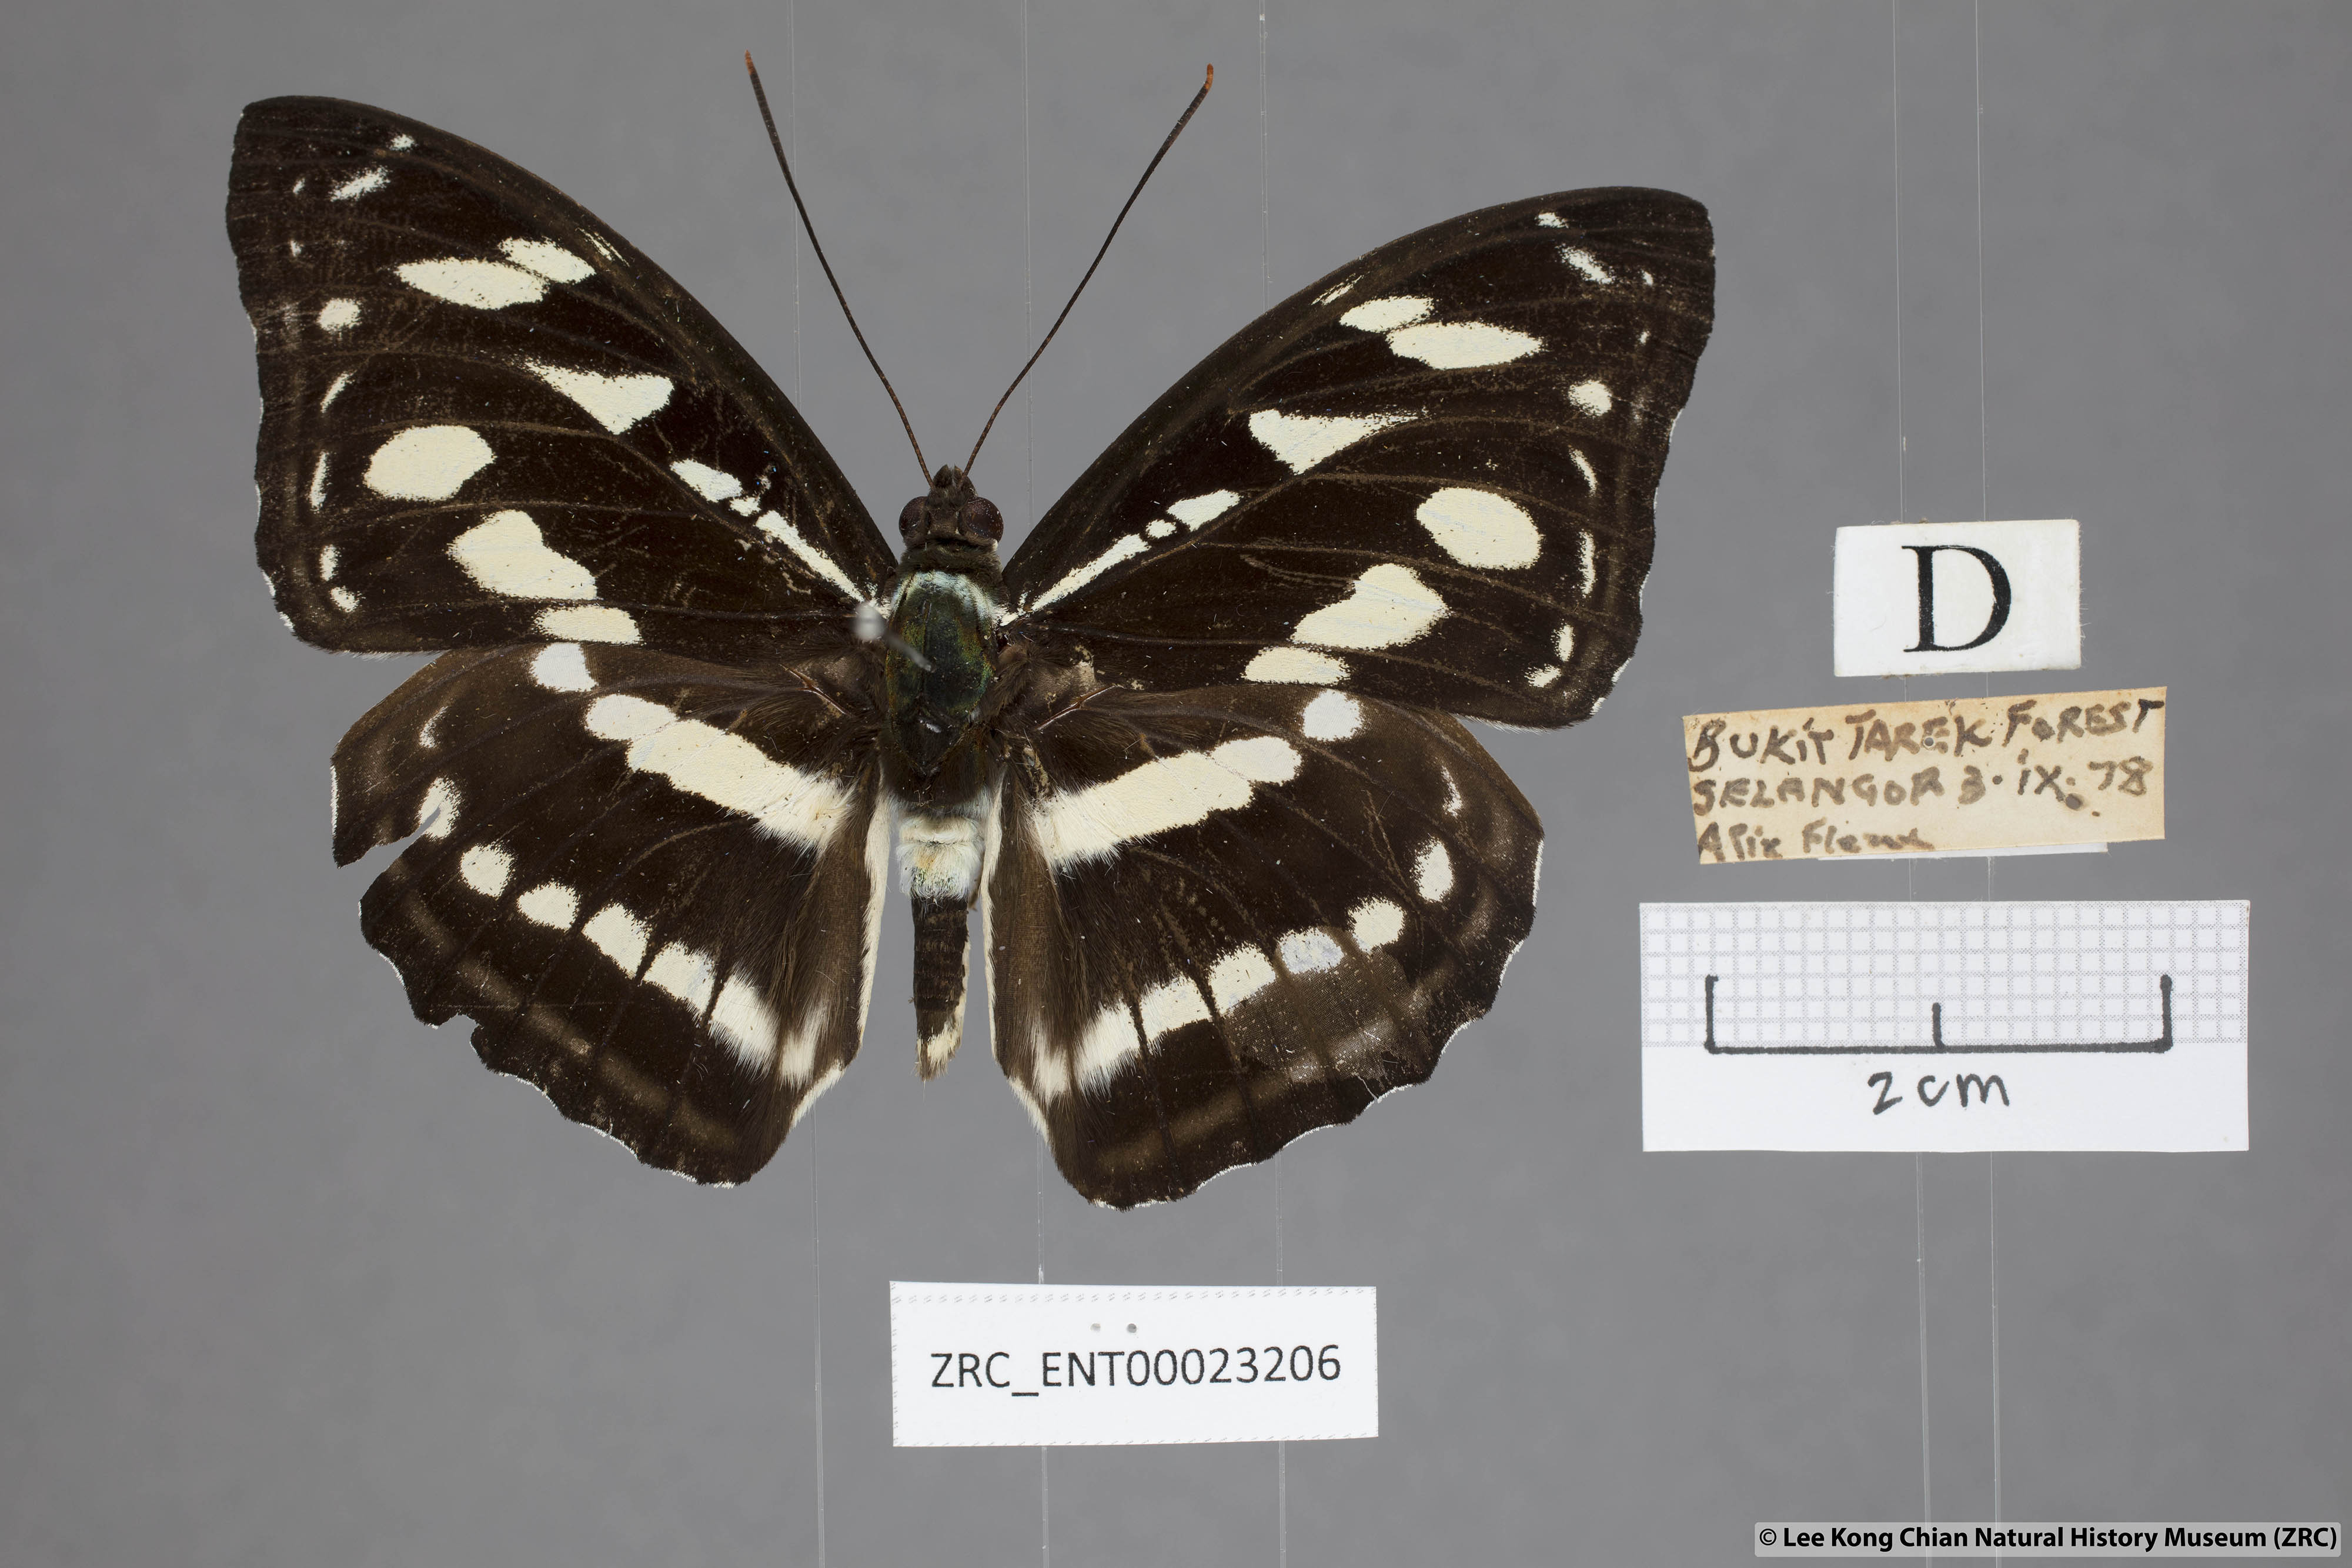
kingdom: Animalia
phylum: Arthropoda
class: Insecta
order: Lepidoptera
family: Nymphalidae
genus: Pantoporia
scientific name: Pantoporia larymna
